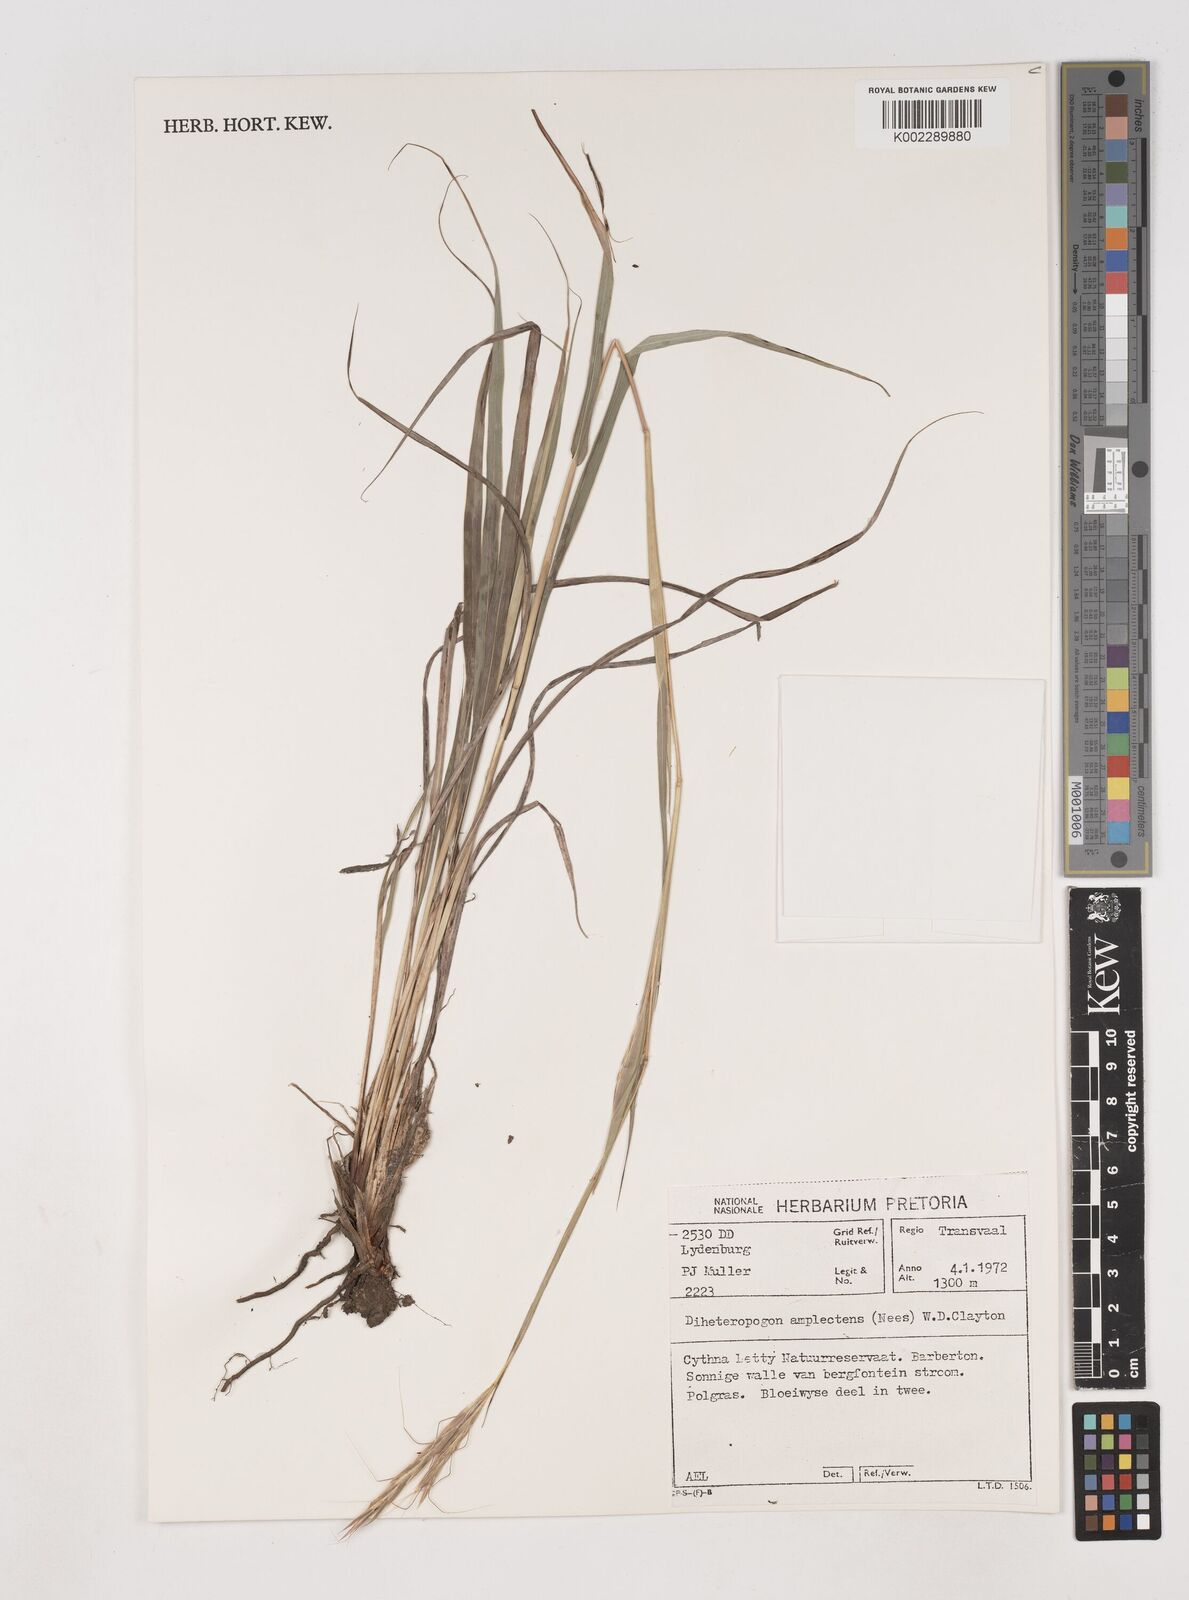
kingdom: Plantae
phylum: Tracheophyta
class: Liliopsida
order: Poales
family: Poaceae
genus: Diheteropogon
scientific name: Diheteropogon amplectens
